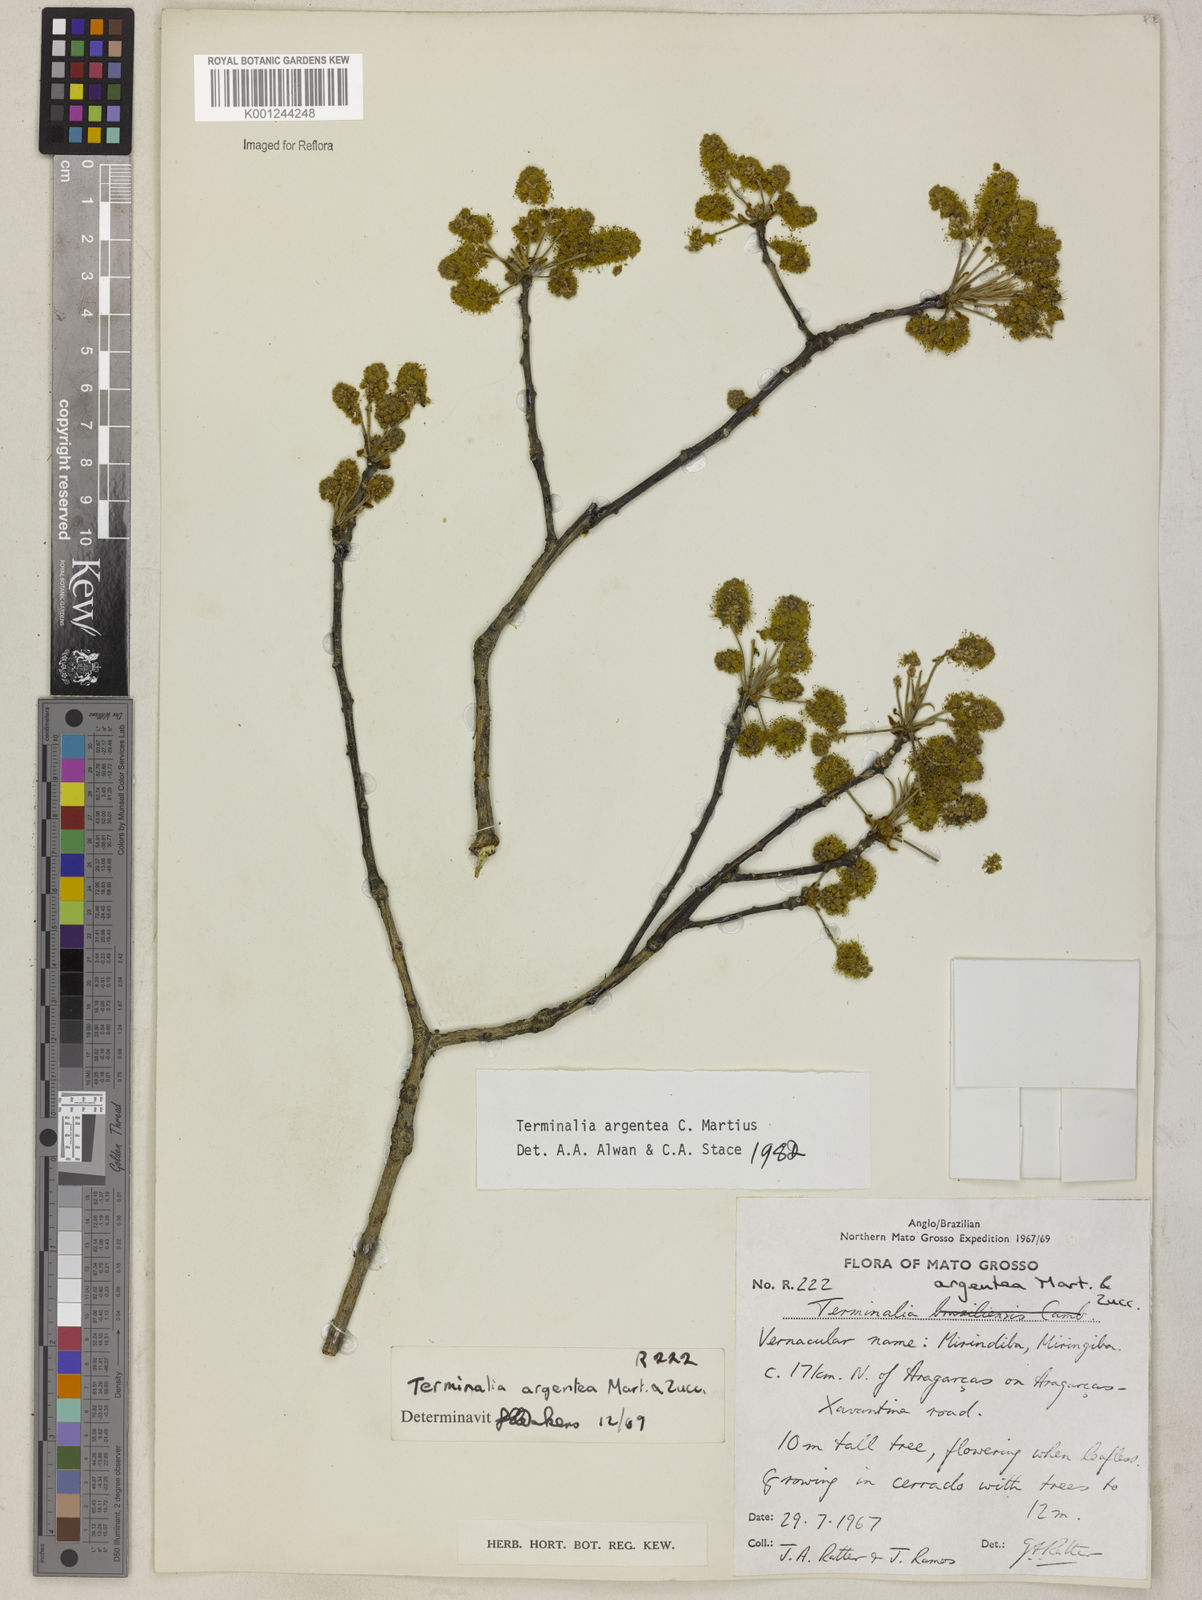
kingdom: Plantae
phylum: Tracheophyta
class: Magnoliopsida
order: Myrtales
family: Combretaceae
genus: Terminalia
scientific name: Terminalia argentea
